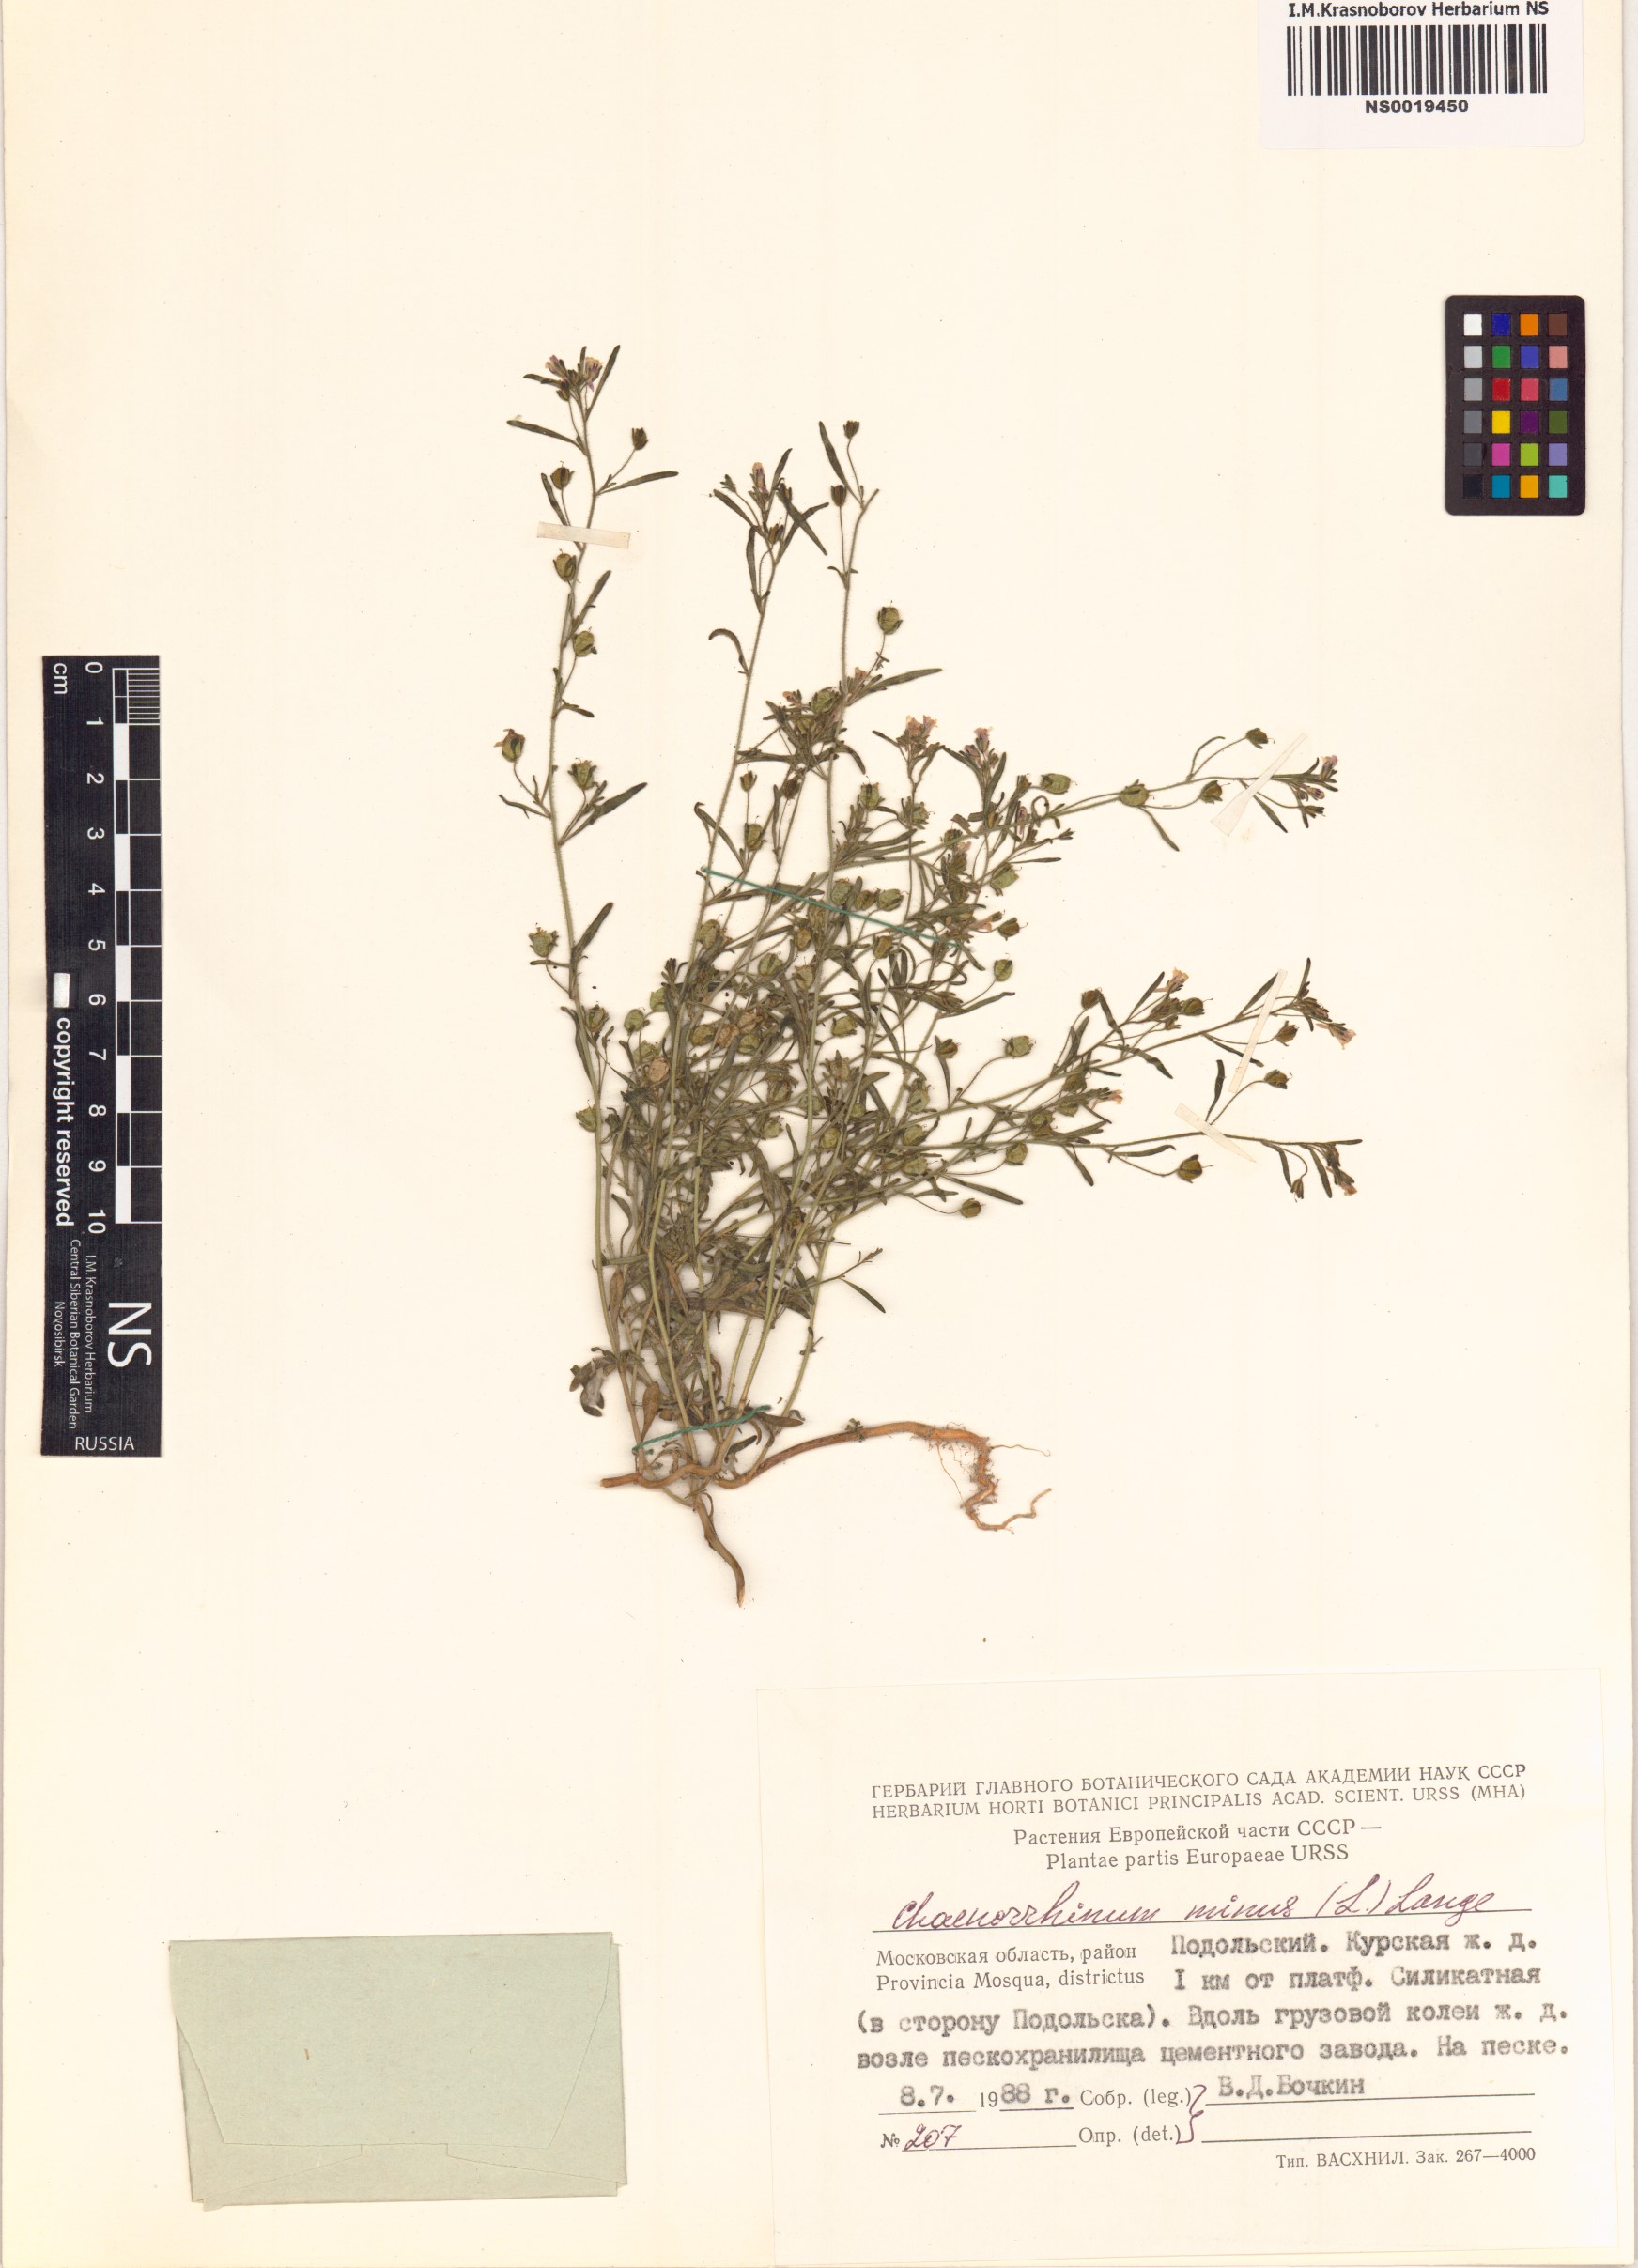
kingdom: Plantae
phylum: Tracheophyta
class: Magnoliopsida
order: Lamiales
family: Plantaginaceae
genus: Chaenorhinum
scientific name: Chaenorhinum minus
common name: Dwarf snapdragon
